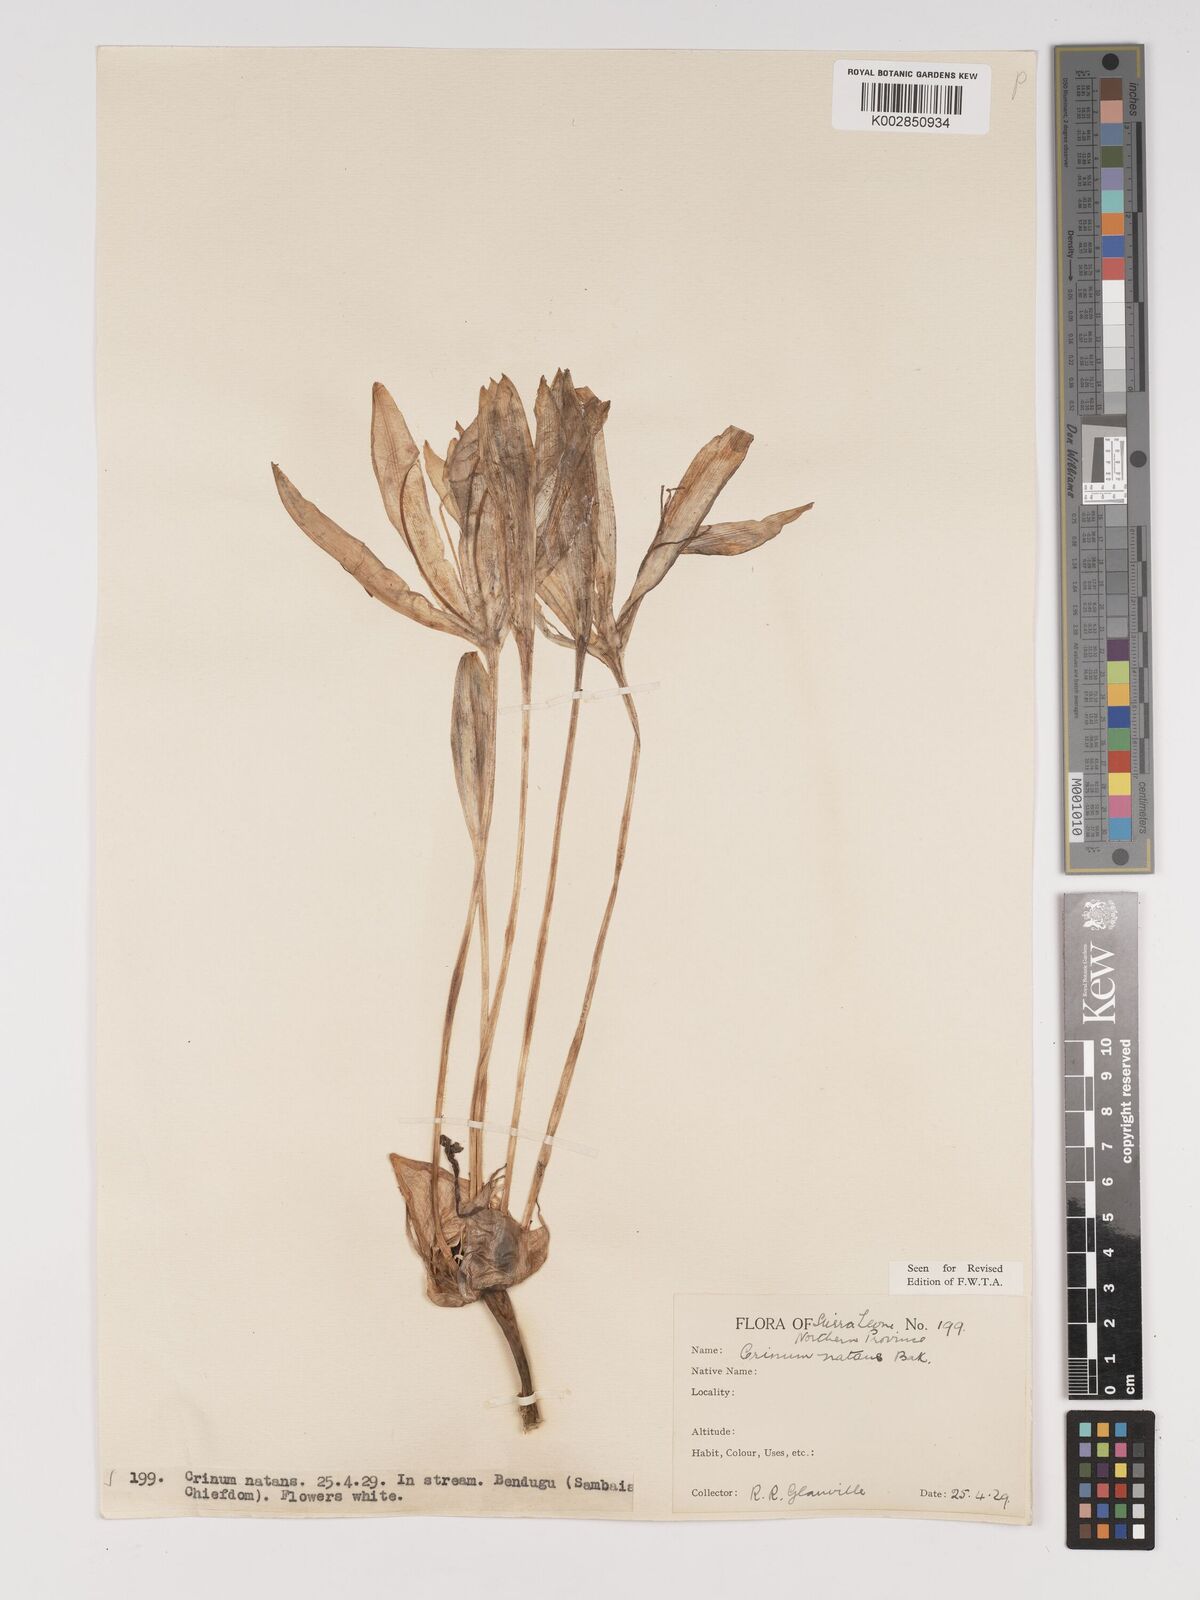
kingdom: Plantae
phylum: Tracheophyta
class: Liliopsida
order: Asparagales
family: Amaryllidaceae
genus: Crinum
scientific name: Crinum natans
